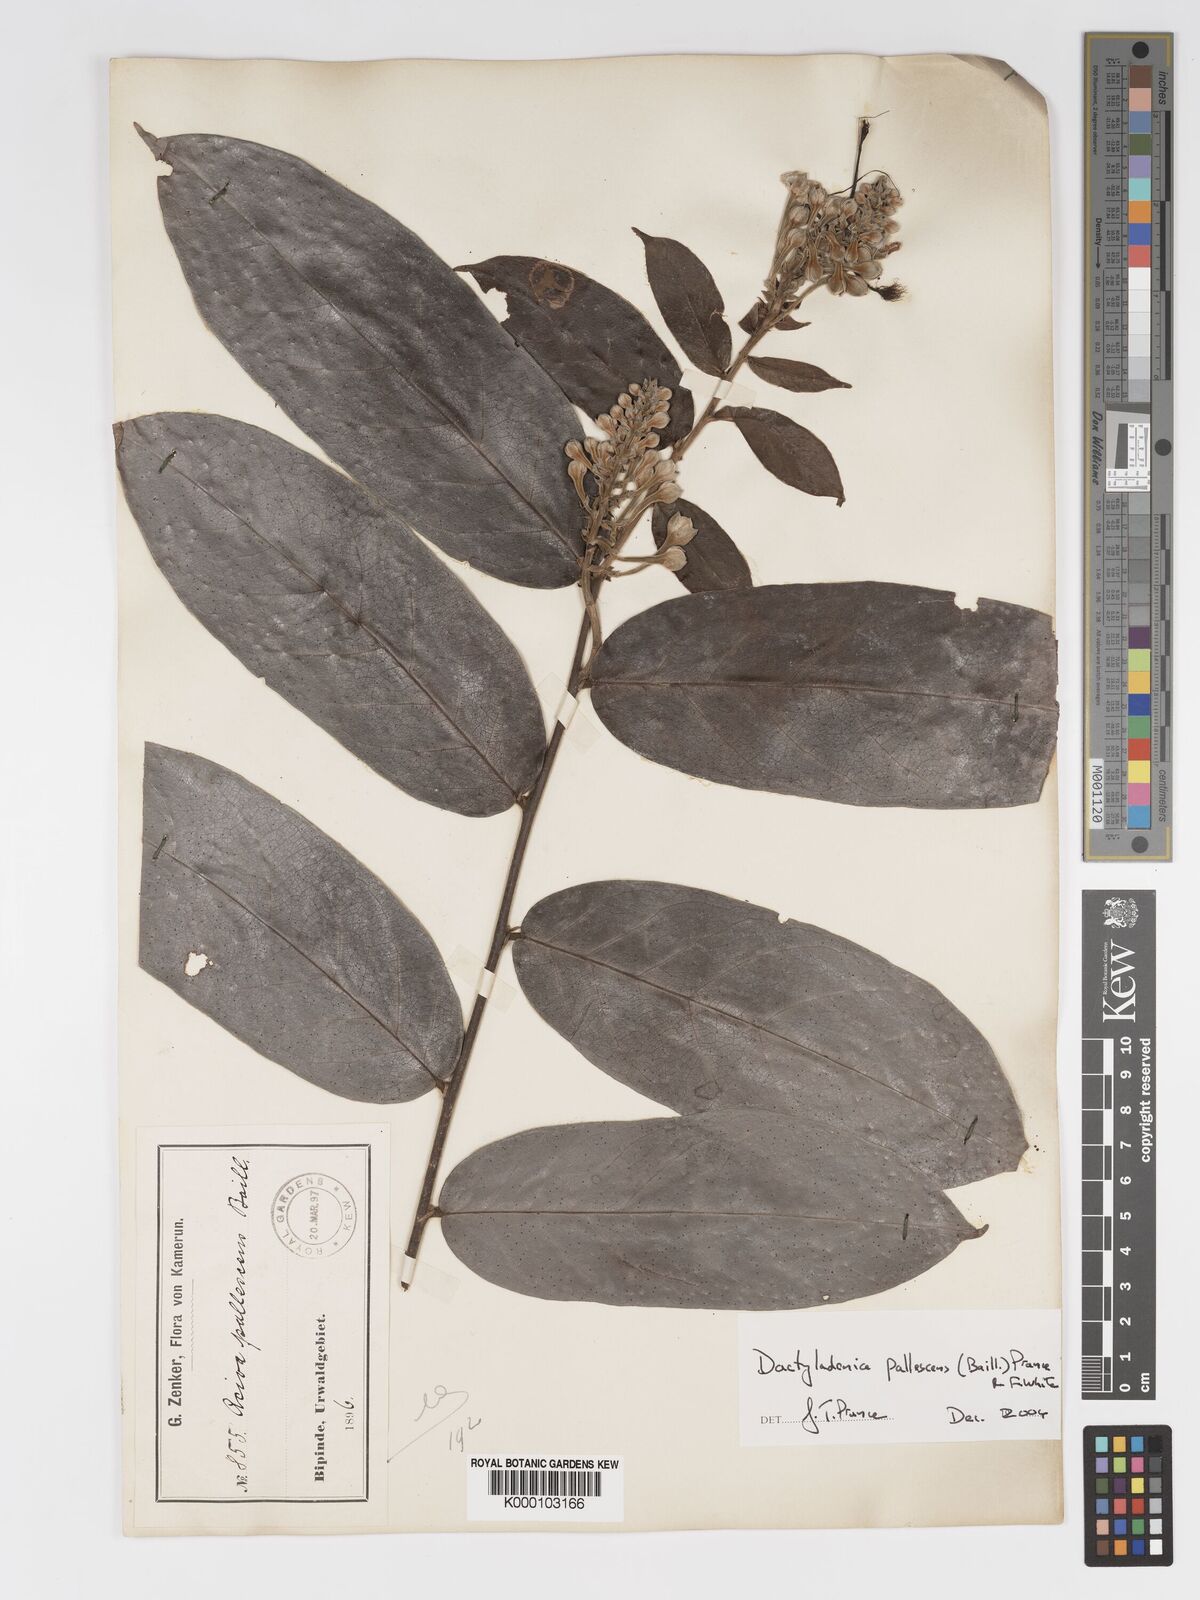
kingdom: Plantae
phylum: Tracheophyta
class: Magnoliopsida
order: Malpighiales
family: Chrysobalanaceae
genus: Dactyladenia
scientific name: Dactyladenia pallescens
